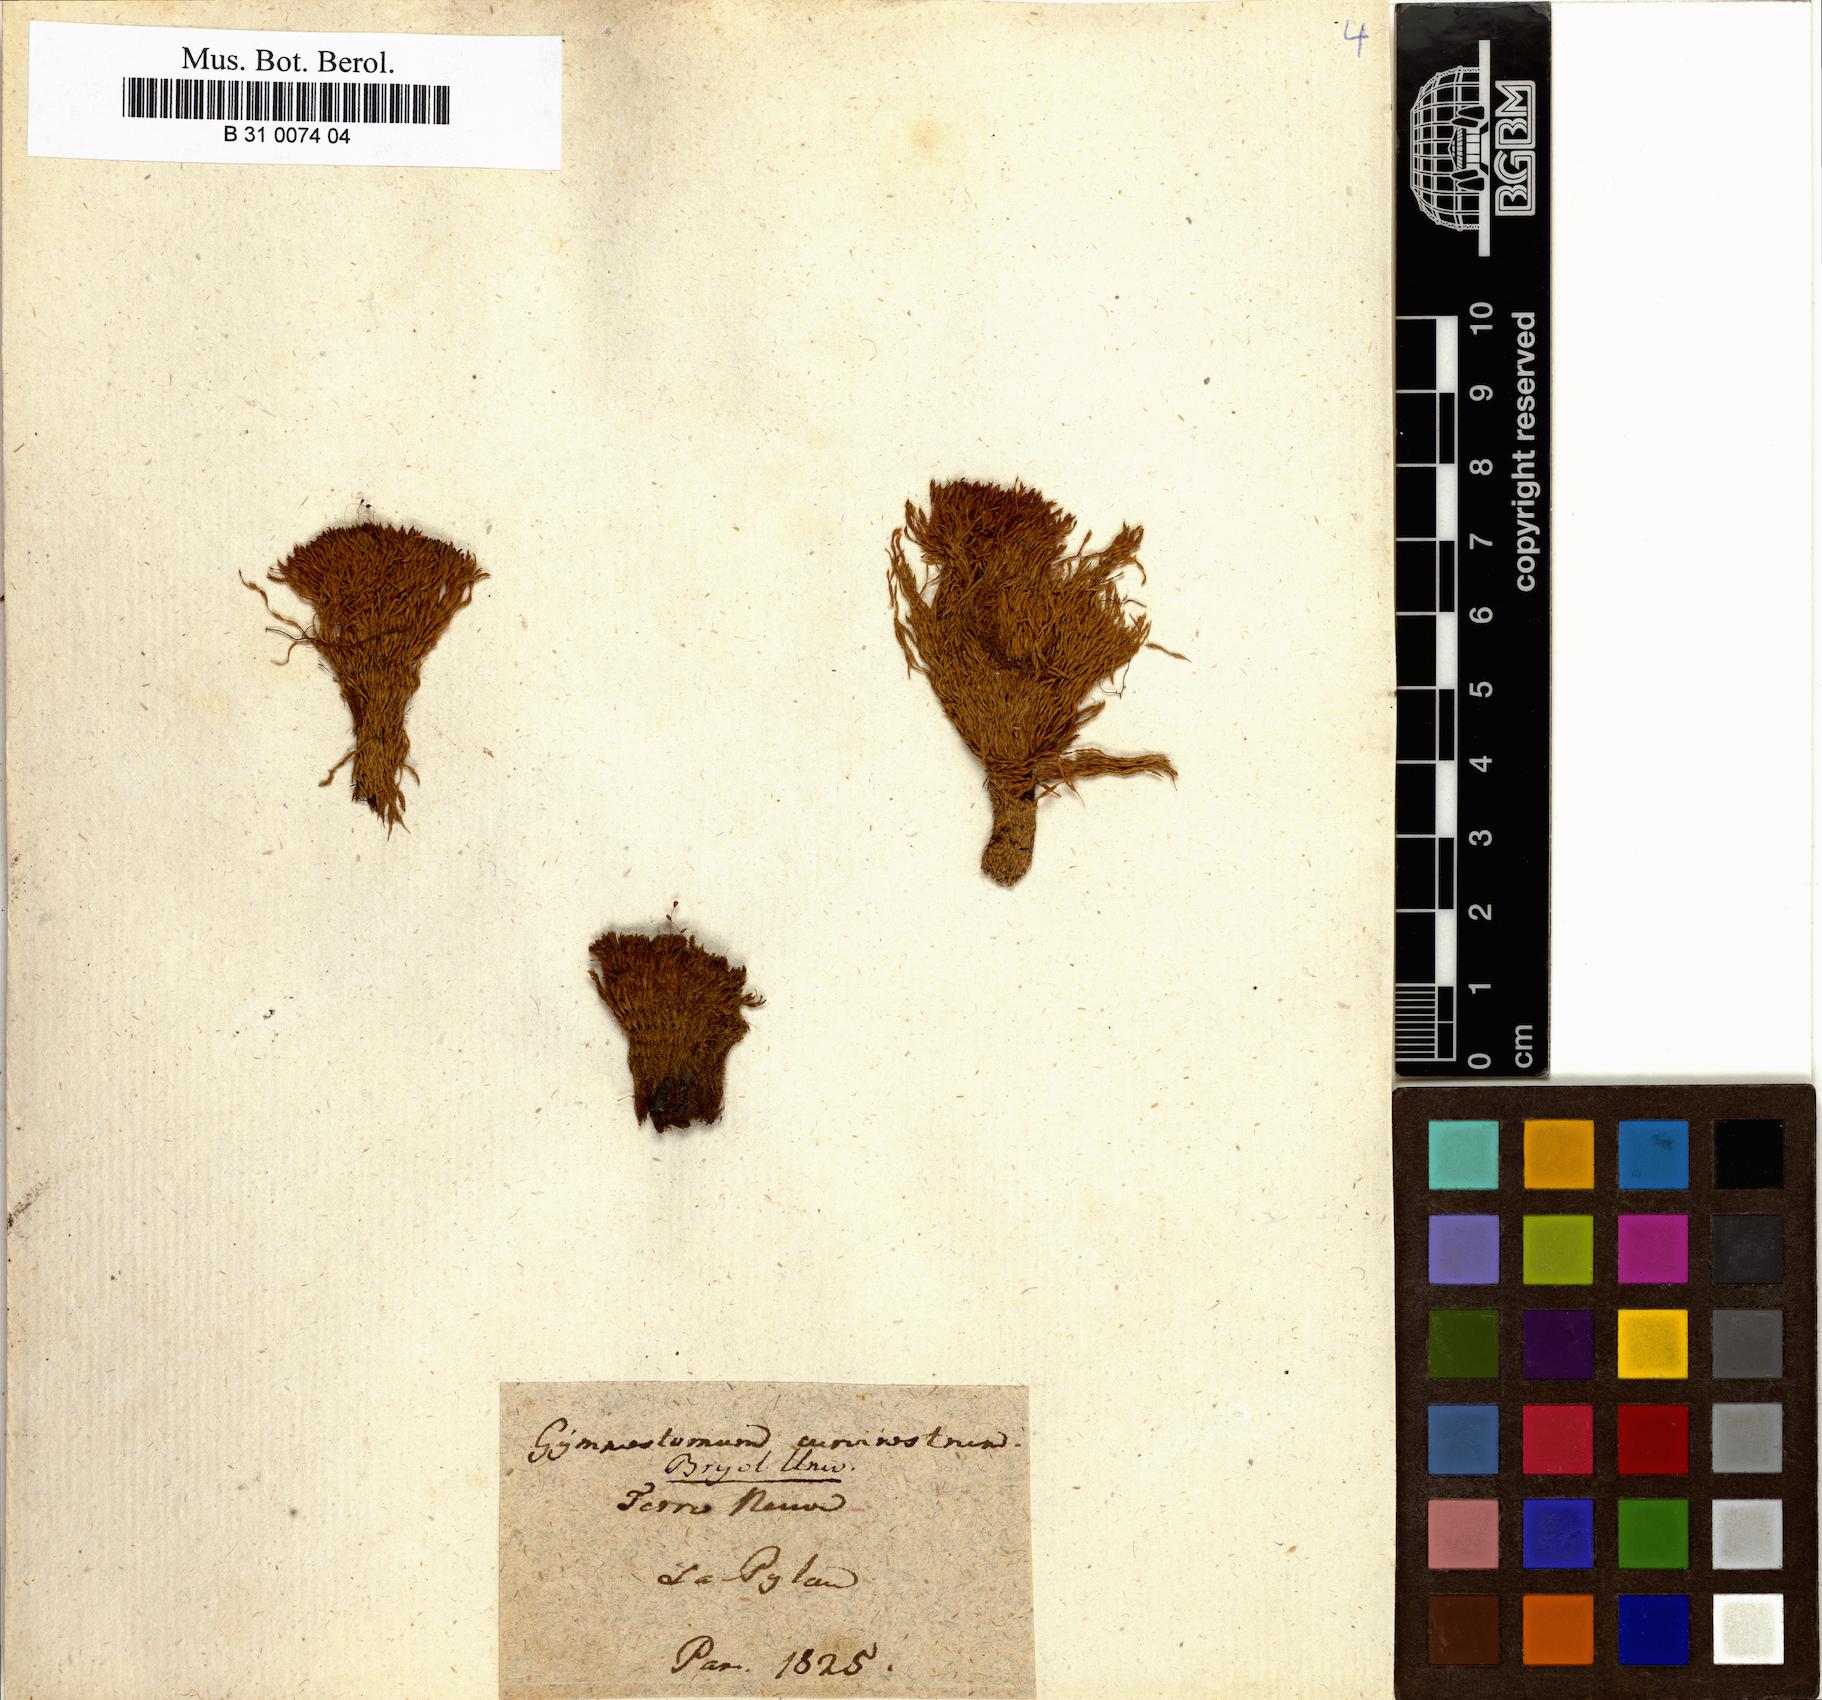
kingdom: Plantae
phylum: Bryophyta
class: Bryopsida
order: Pottiales
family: Pottiaceae
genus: Hymenostylium
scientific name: Hymenostylium recurvirostrum
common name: Hook-beak tufa-moss
